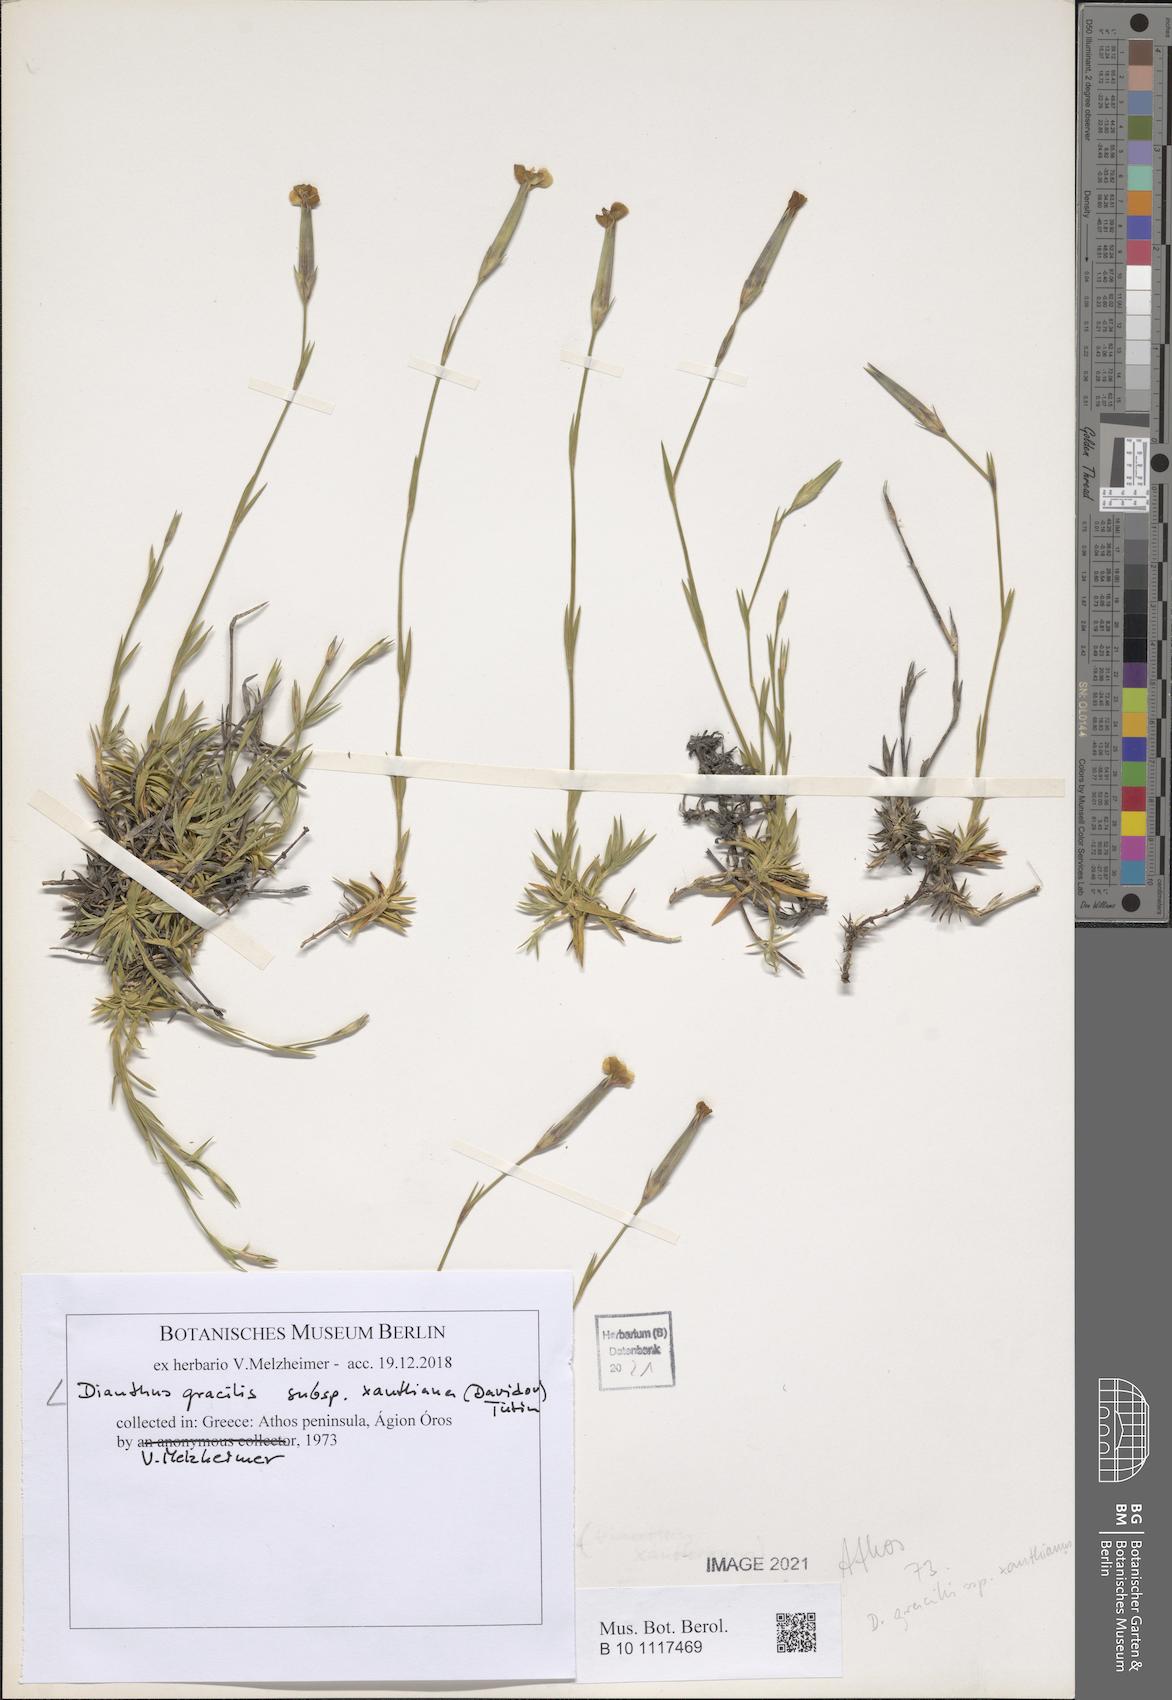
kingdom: Plantae
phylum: Tracheophyta
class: Magnoliopsida
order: Caryophyllales
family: Caryophyllaceae
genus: Dianthus
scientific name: Dianthus gracilis
